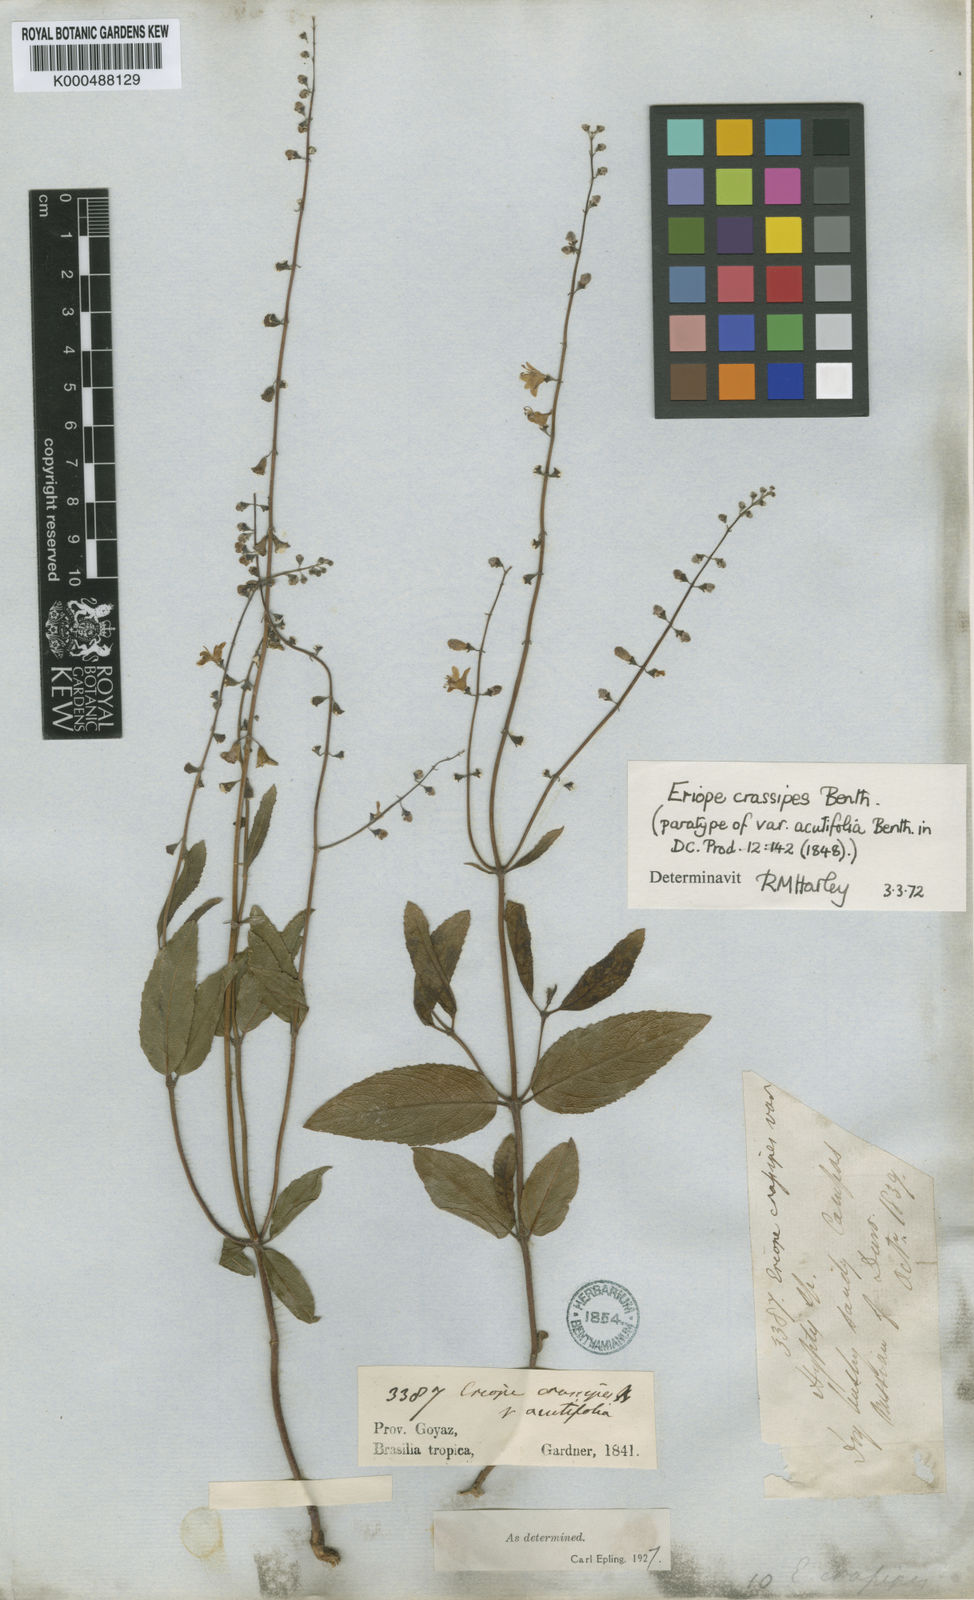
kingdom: Plantae
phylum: Tracheophyta
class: Magnoliopsida
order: Lamiales
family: Lamiaceae
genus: Eriope
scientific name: Eriope crassipes
